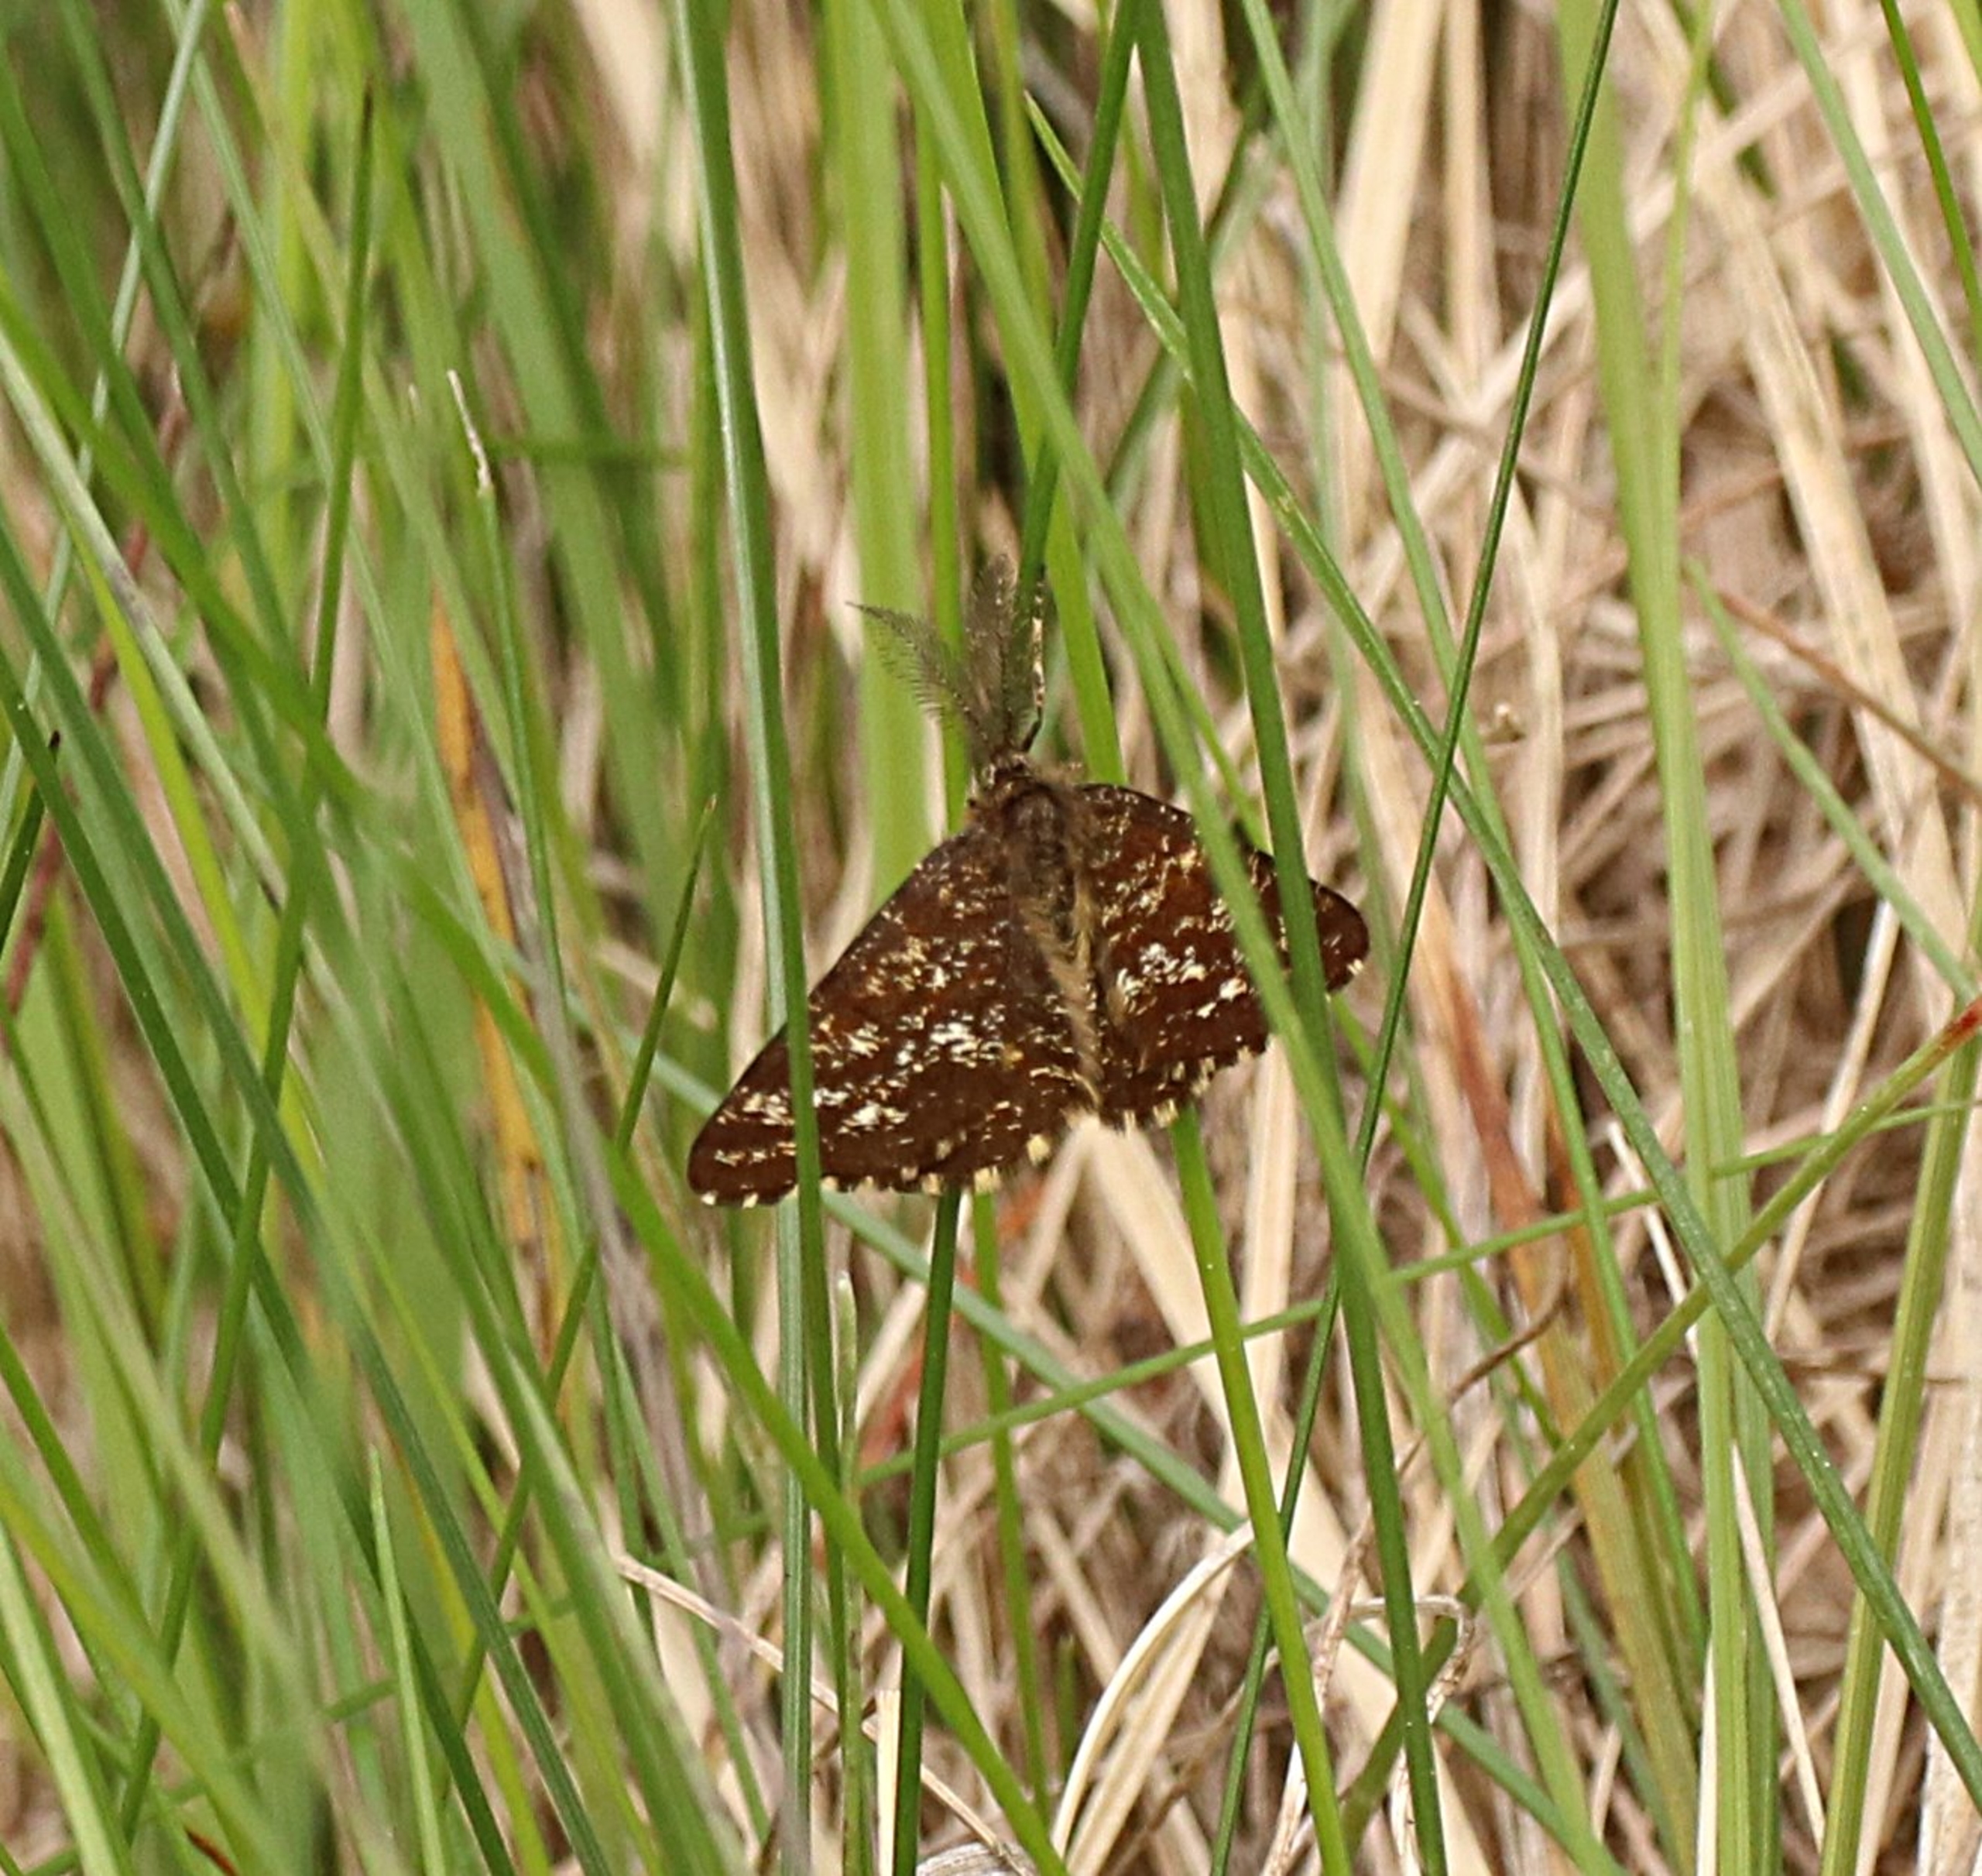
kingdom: Animalia
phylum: Arthropoda
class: Insecta
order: Lepidoptera
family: Geometridae
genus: Ematurga
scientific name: Ematurga atomaria
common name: Lyngmåler
